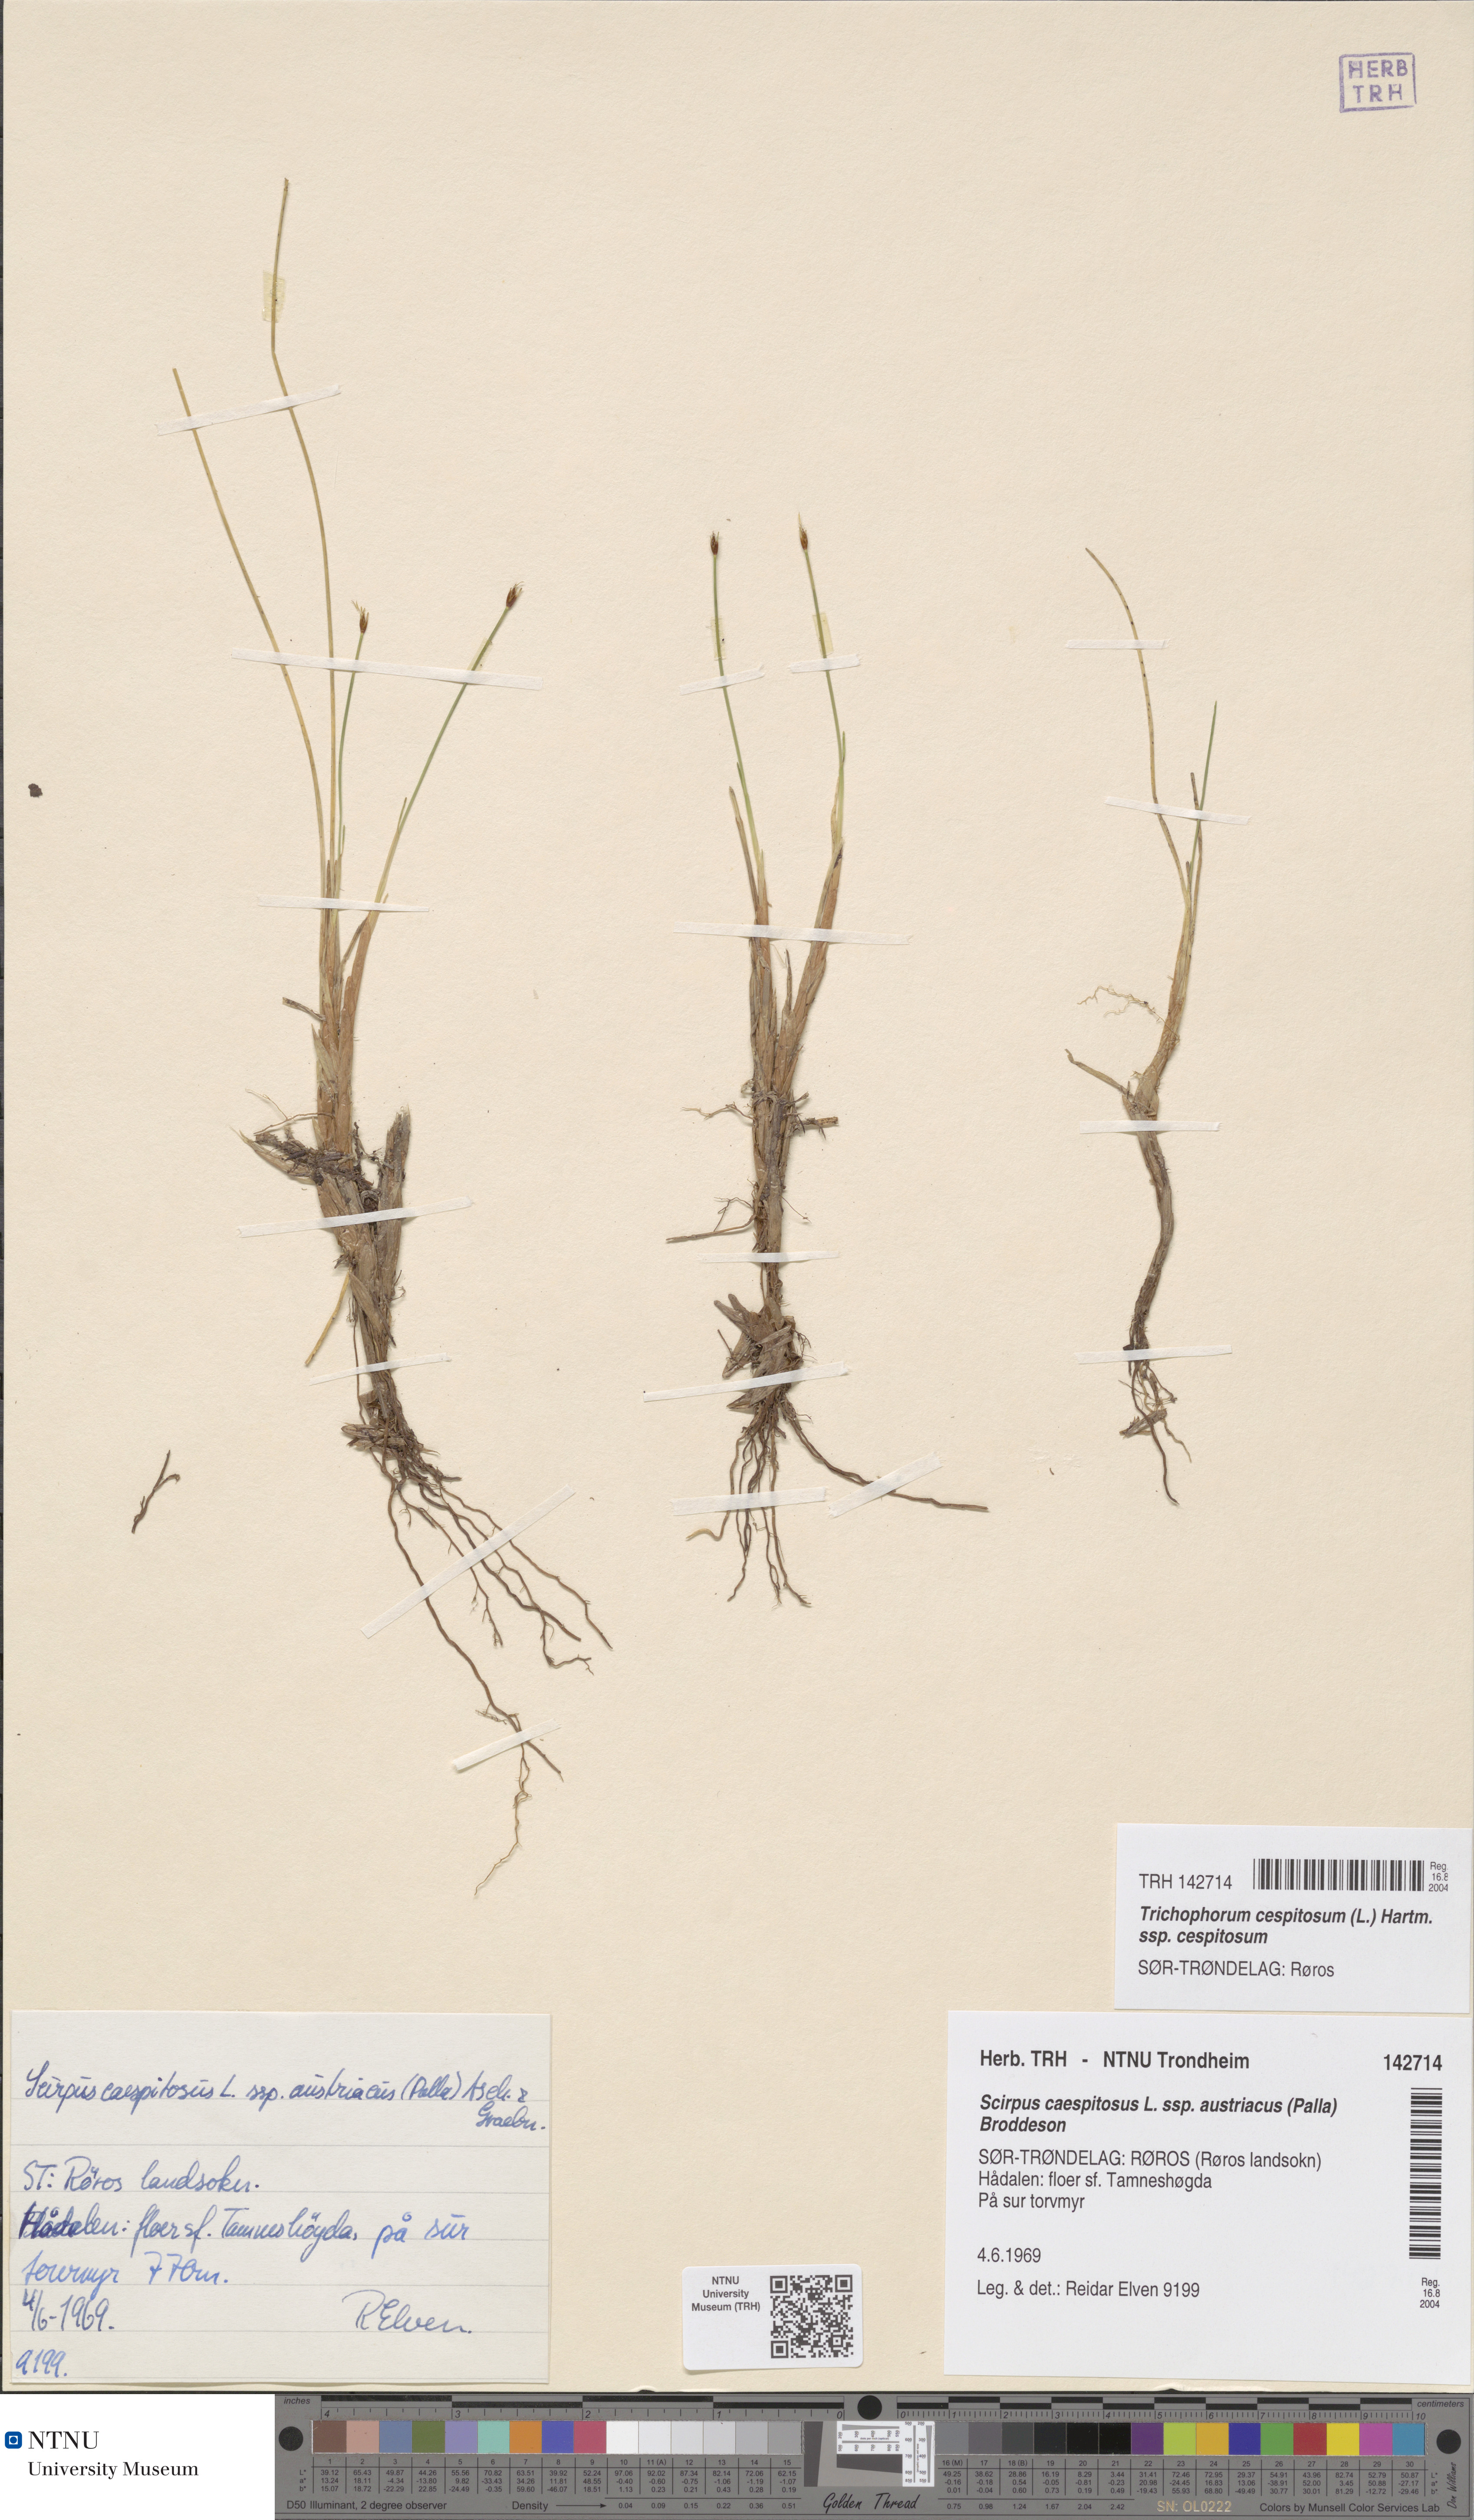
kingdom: Plantae
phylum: Tracheophyta
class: Liliopsida
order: Poales
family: Cyperaceae
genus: Trichophorum
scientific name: Trichophorum cespitosum
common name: Cespitose bulrush
